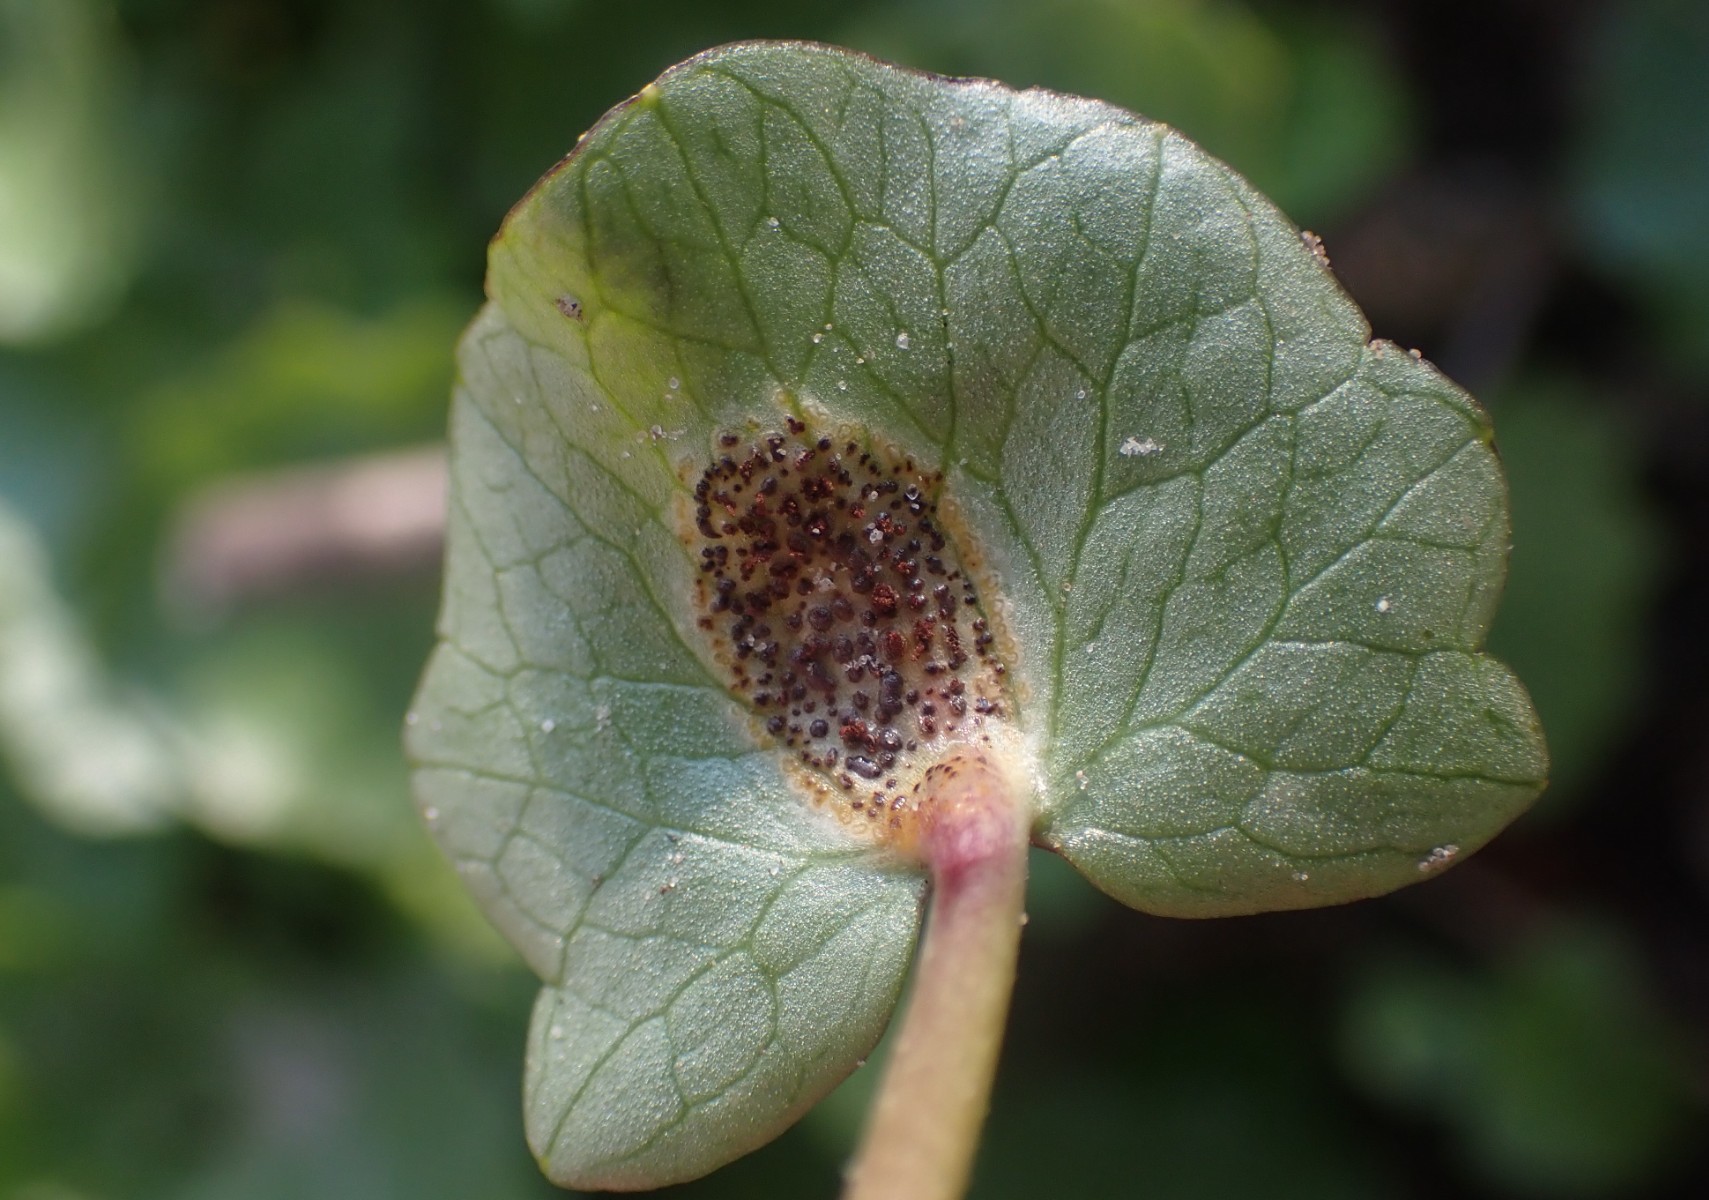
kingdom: Fungi
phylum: Basidiomycota
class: Pucciniomycetes
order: Pucciniales
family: Pucciniaceae
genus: Uromyces
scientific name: Uromyces ficariae
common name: vorterod-encellerust
